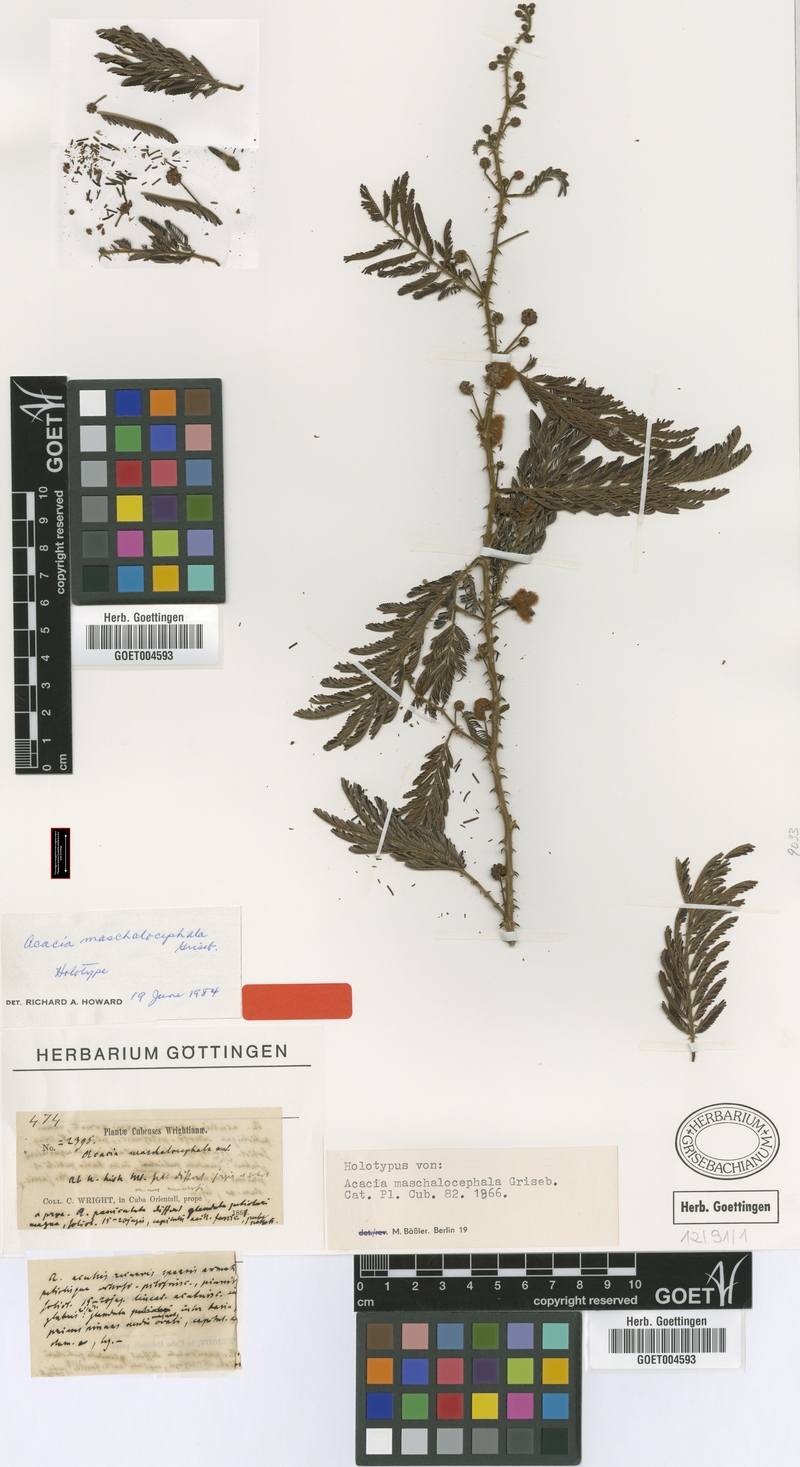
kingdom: Plantae
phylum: Tracheophyta
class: Magnoliopsida
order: Fabales
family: Fabaceae
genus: Senegalia
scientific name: Senegalia maschalocephala
